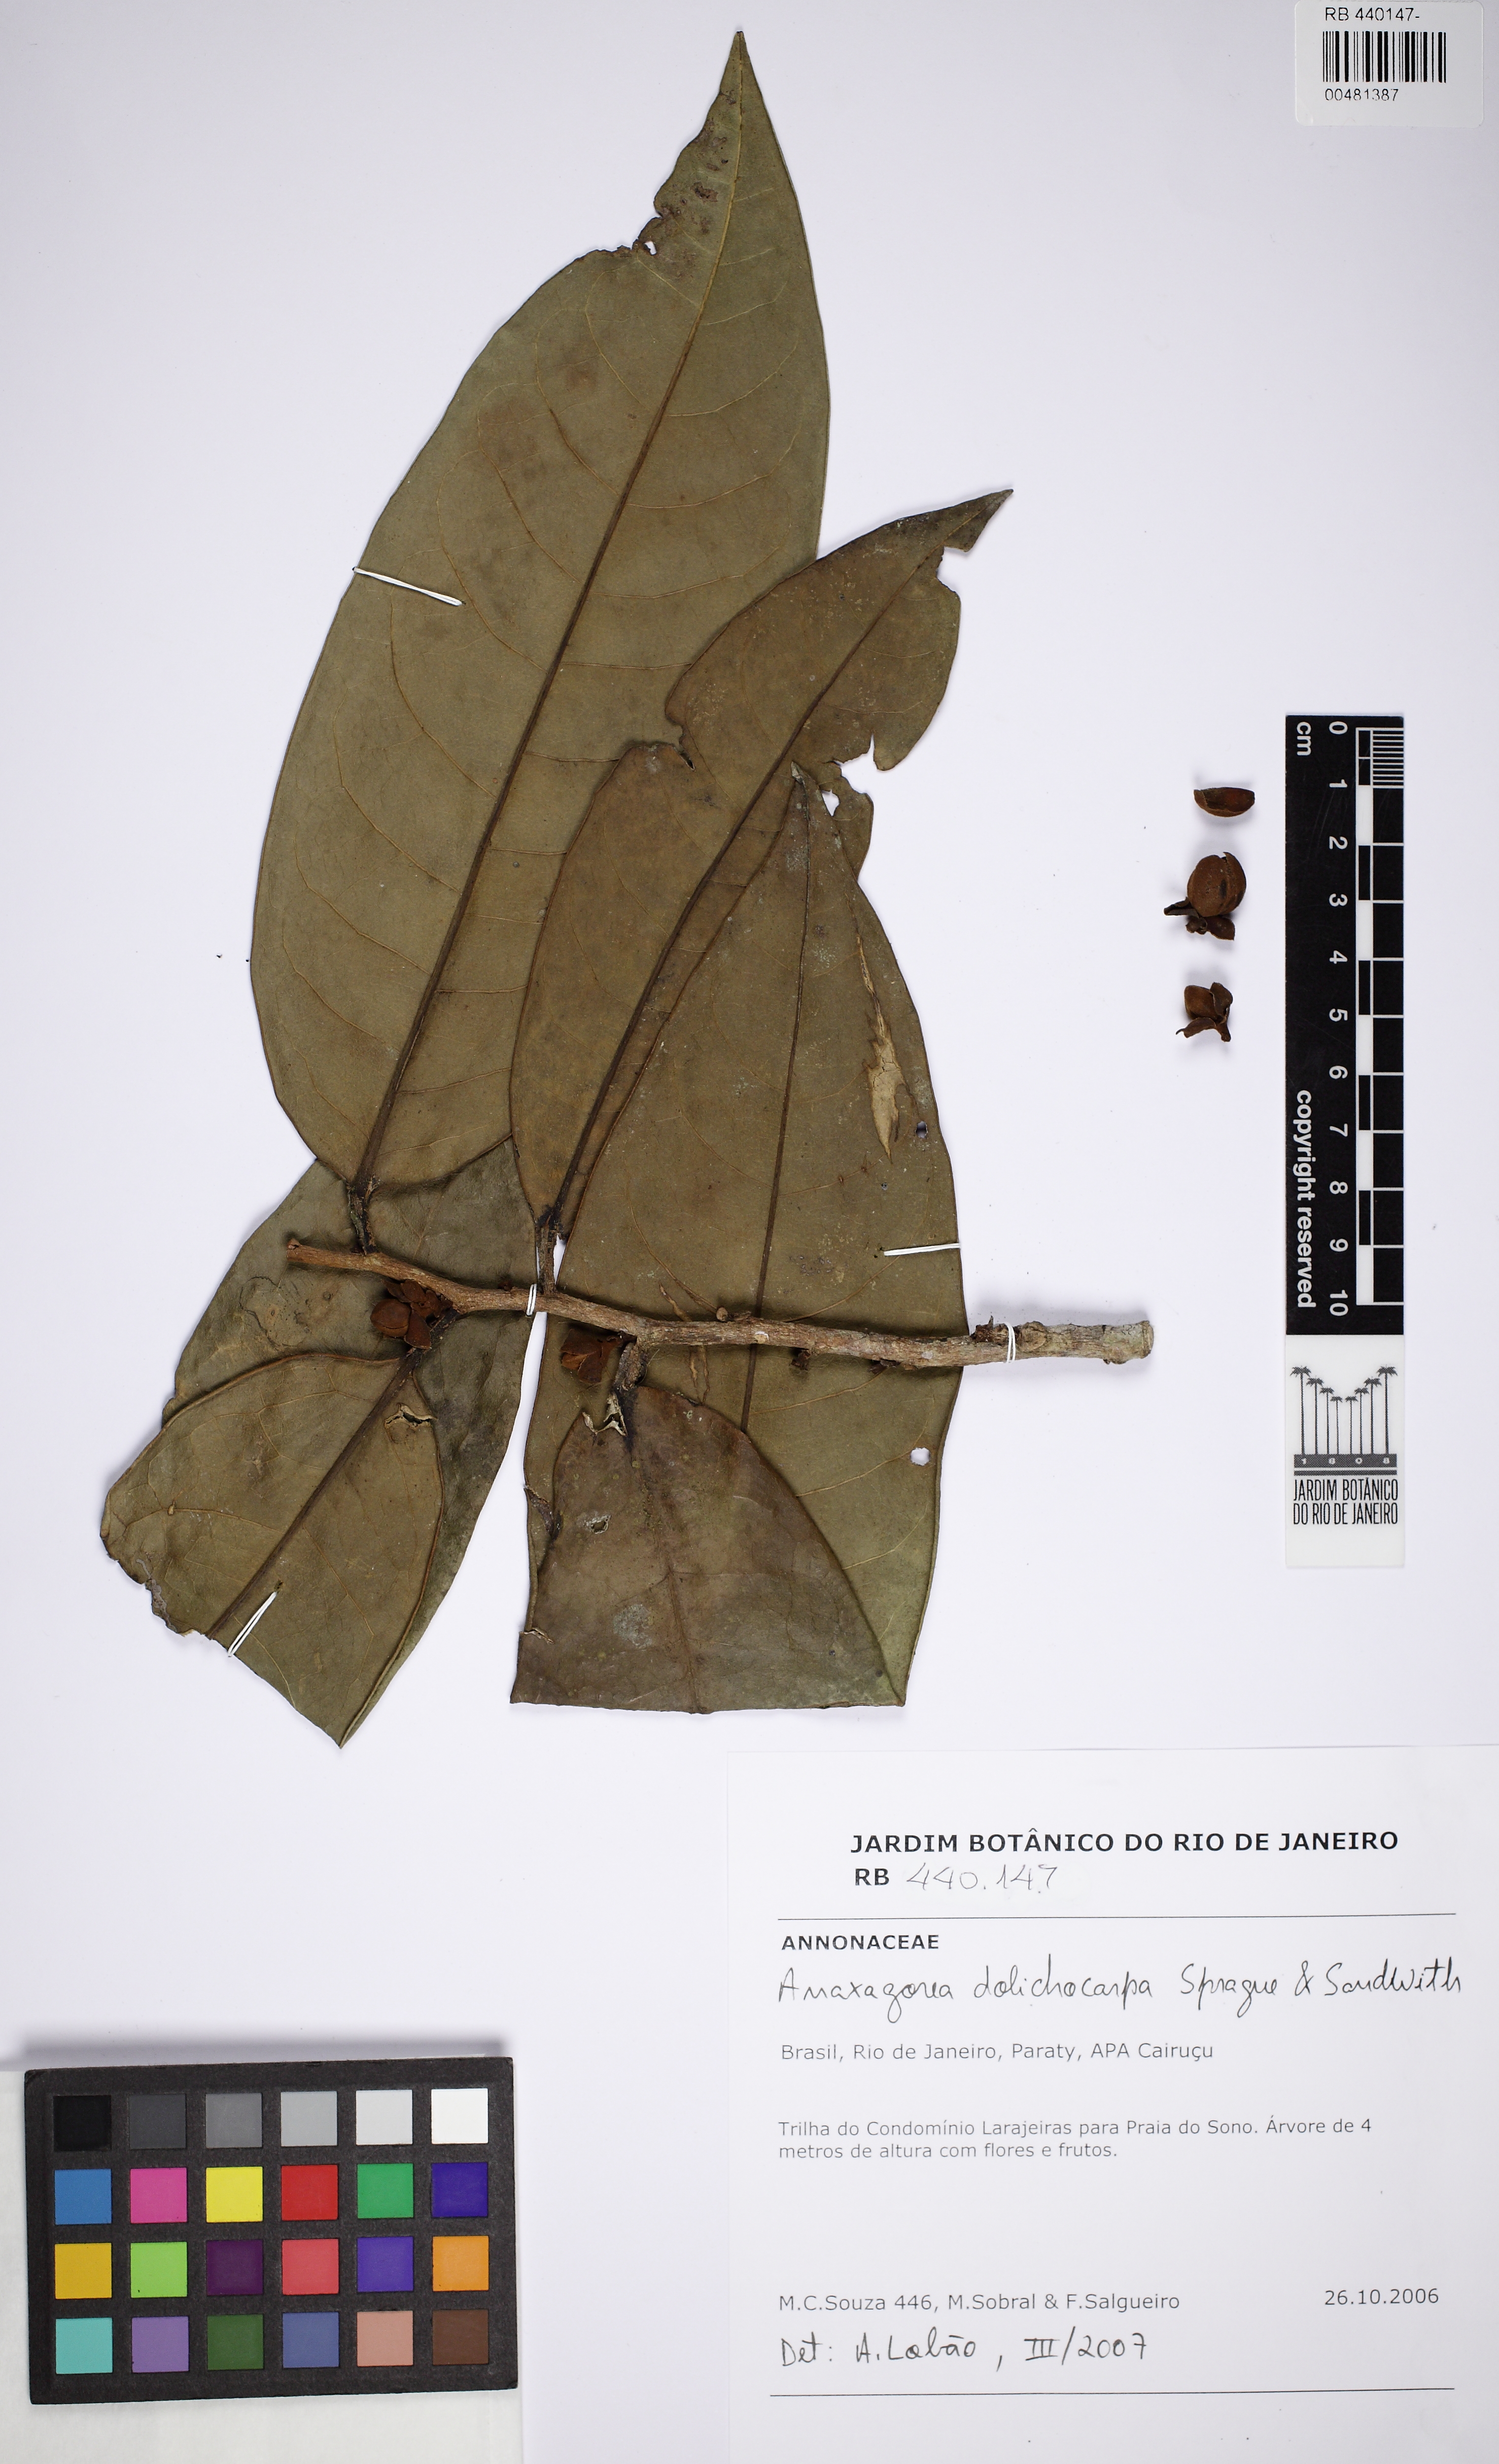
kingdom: Plantae
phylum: Tracheophyta
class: Magnoliopsida
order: Magnoliales
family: Annonaceae
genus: Anaxagorea
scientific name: Anaxagorea dolichocarpa
